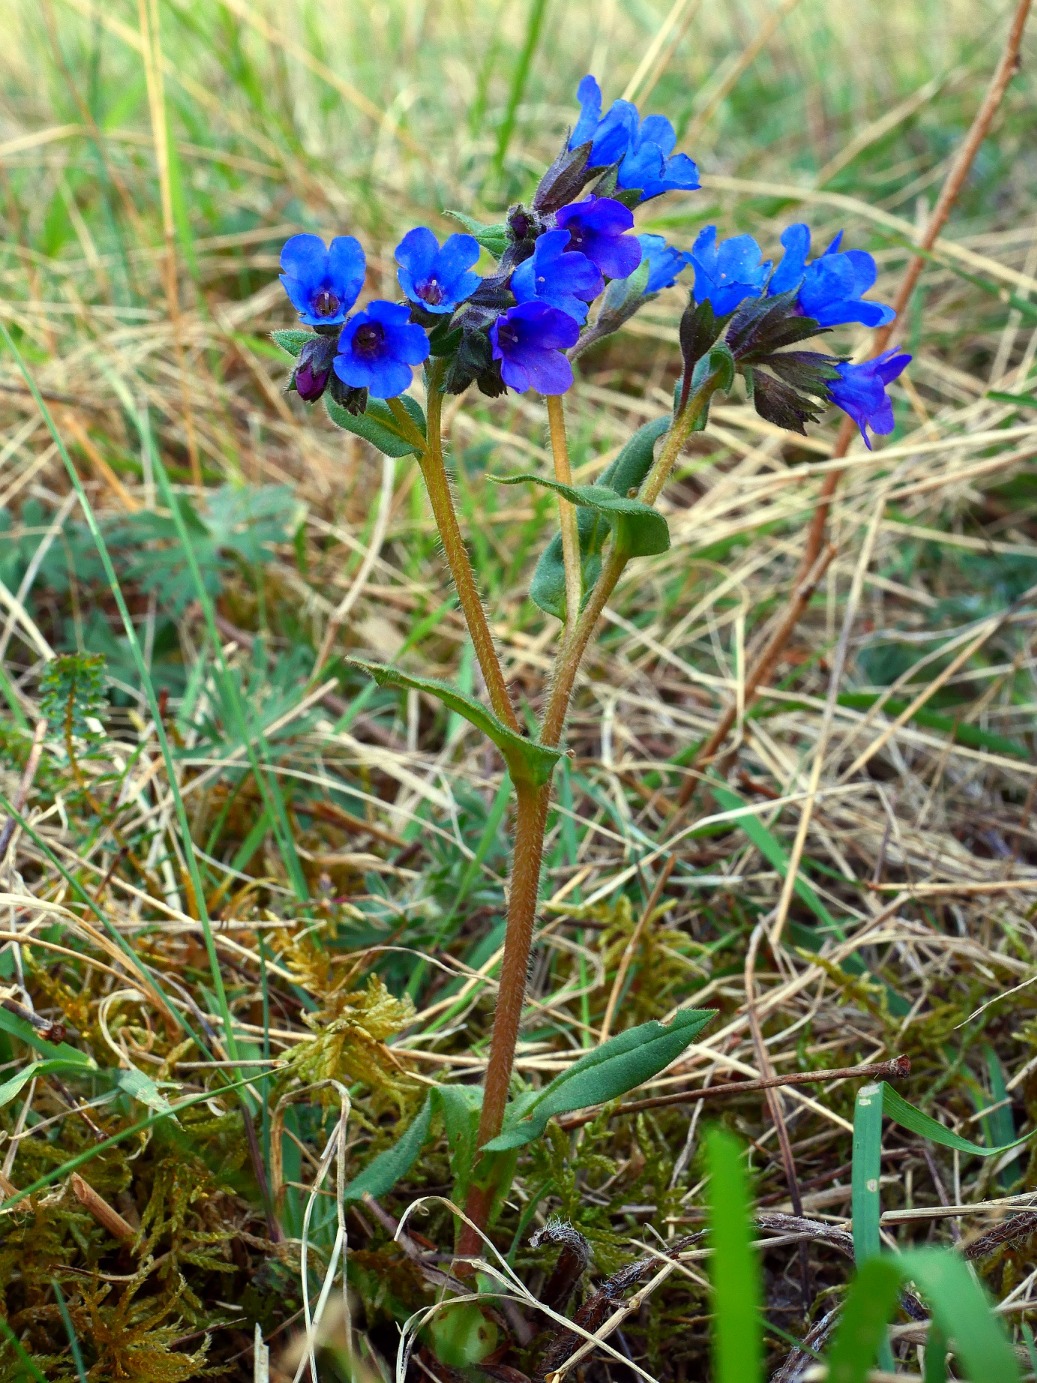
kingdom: Plantae
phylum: Tracheophyta
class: Magnoliopsida
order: Boraginales
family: Boraginaceae
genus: Pulmonaria
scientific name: Pulmonaria angustifolia
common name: Himmelblå lungeurt
